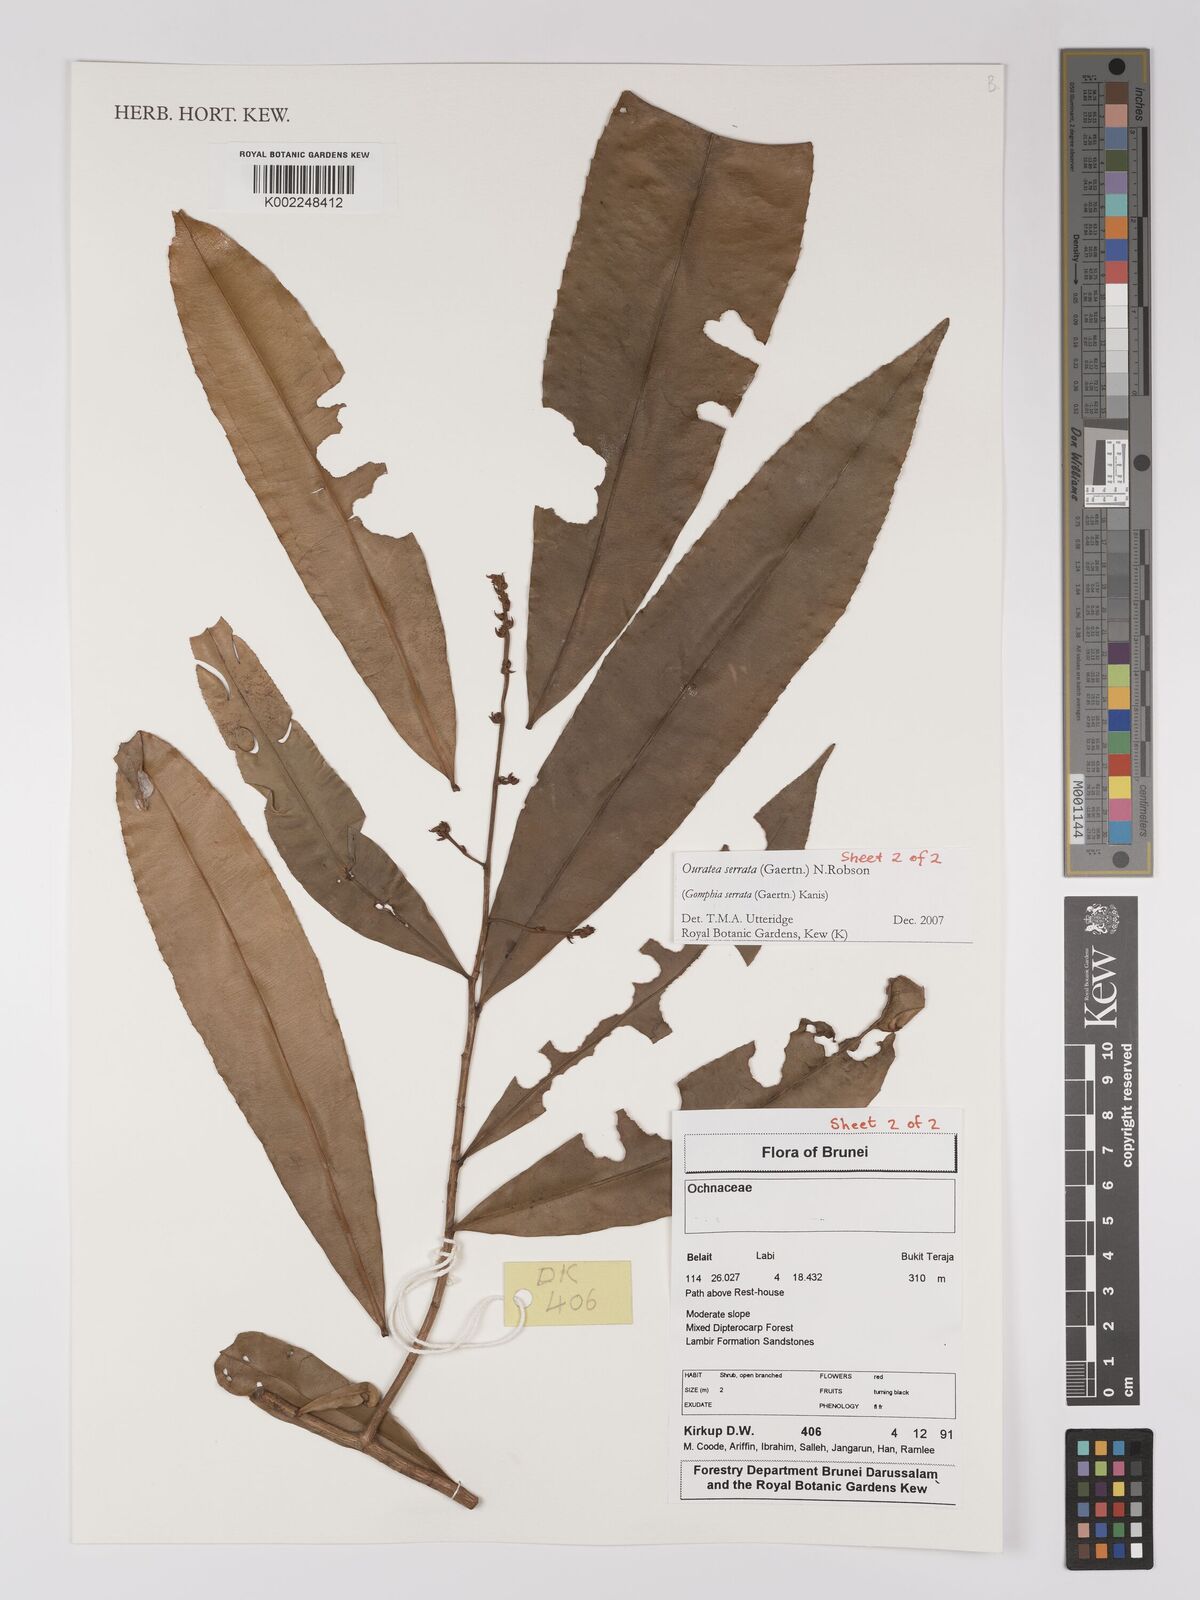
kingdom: Plantae
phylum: Tracheophyta
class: Magnoliopsida
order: Malpighiales
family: Ochnaceae
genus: Gomphia
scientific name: Gomphia serrata
